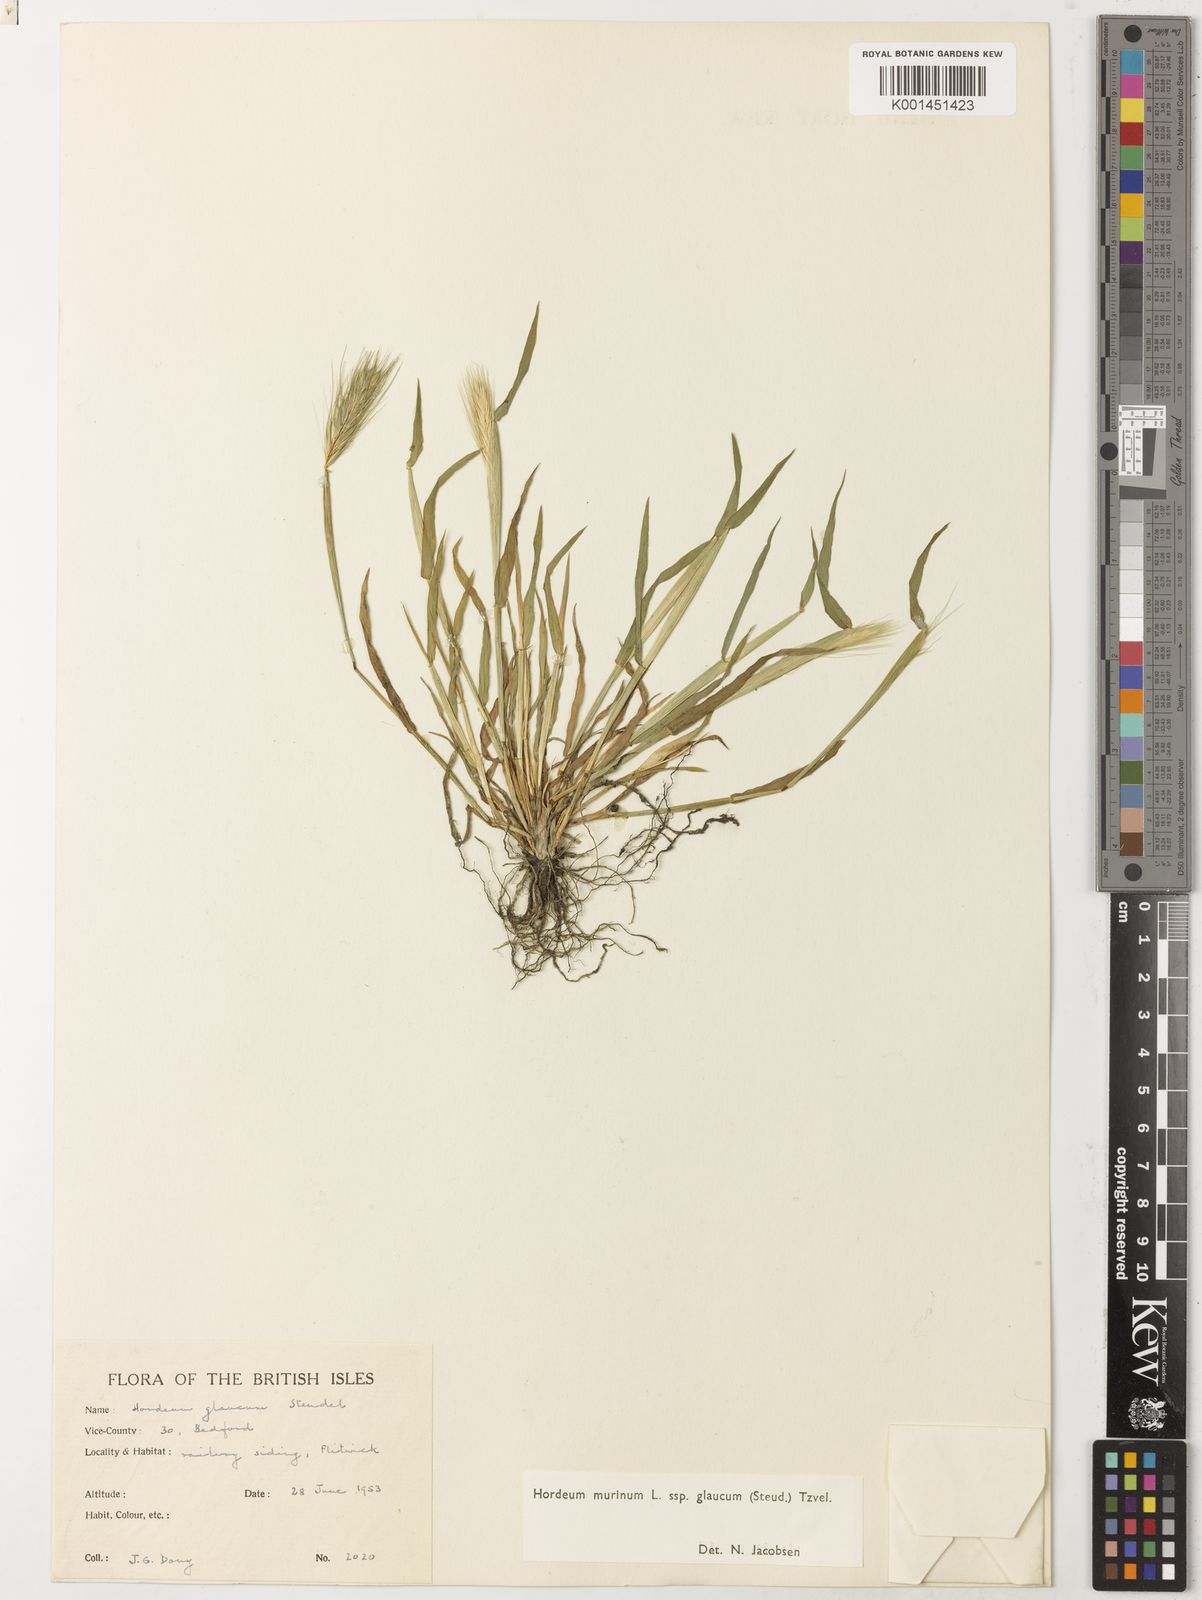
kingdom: Plantae
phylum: Tracheophyta
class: Liliopsida
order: Poales
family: Poaceae
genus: Hordeum
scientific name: Hordeum murinum
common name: Wall barley
